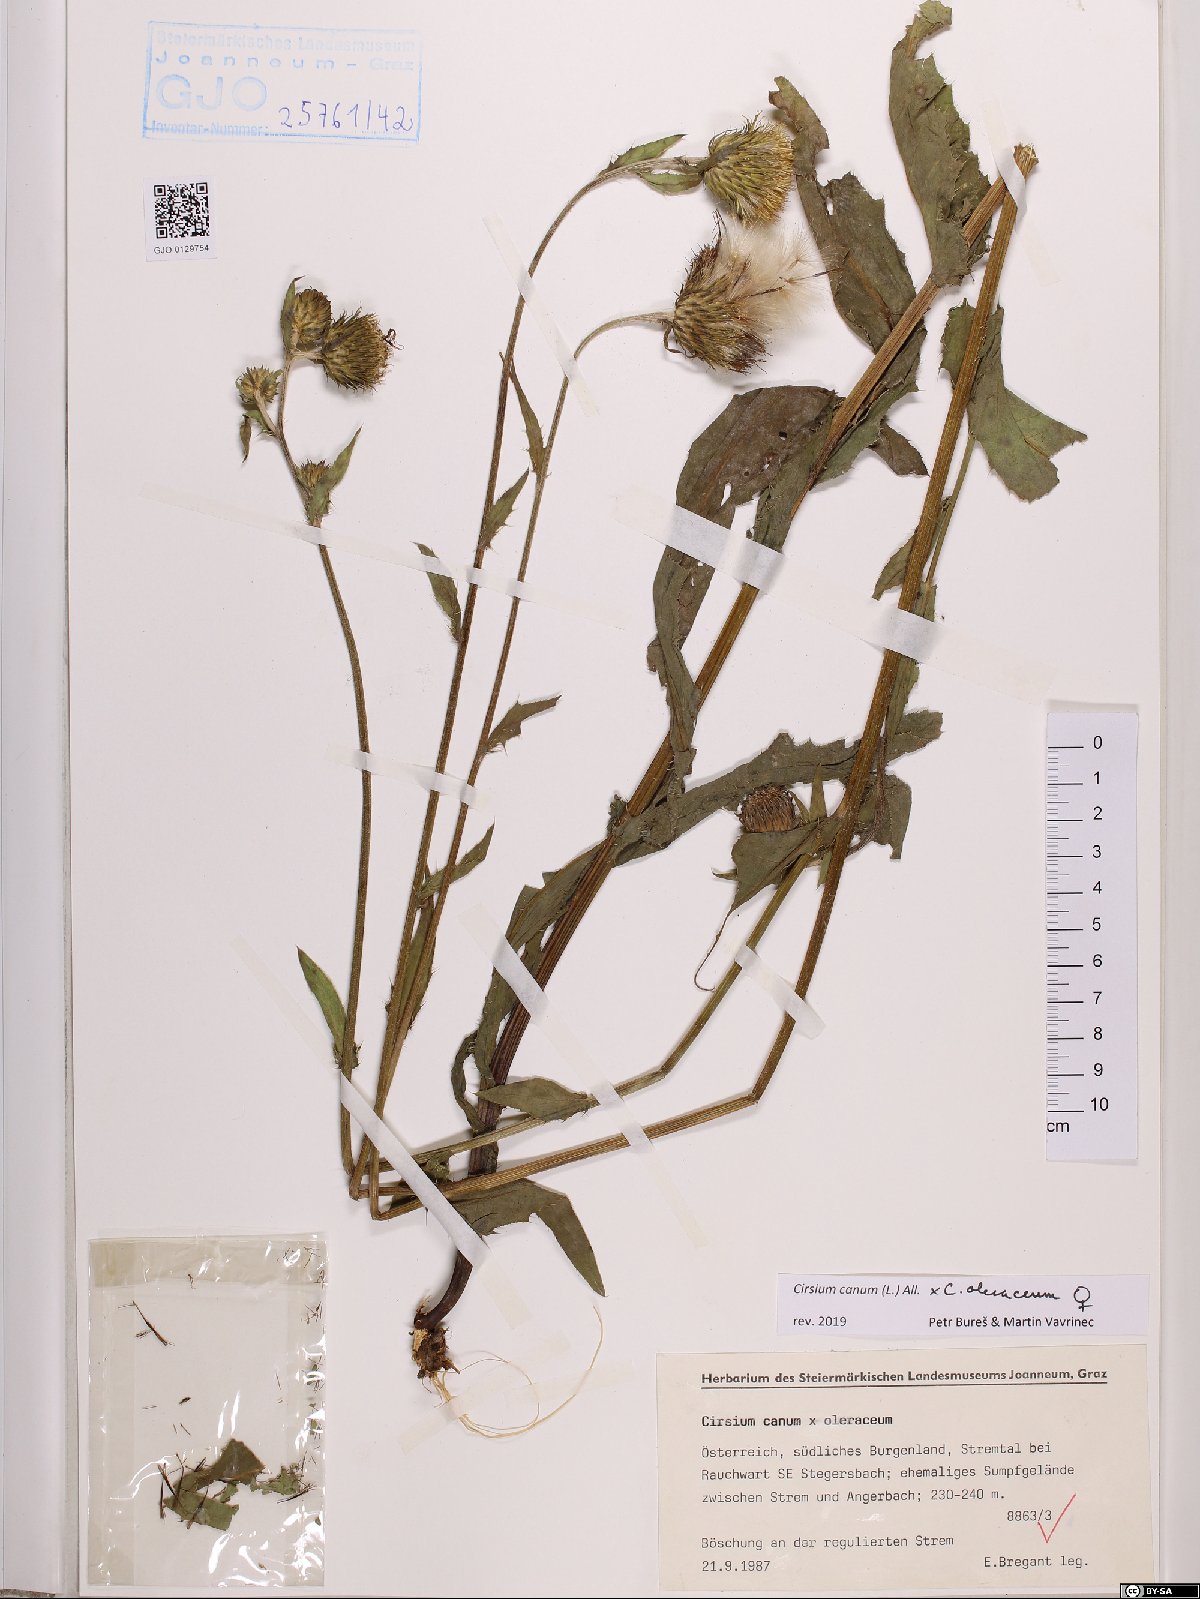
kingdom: Plantae
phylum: Tracheophyta
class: Magnoliopsida
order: Asterales
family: Asteraceae
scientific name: Asteraceae
